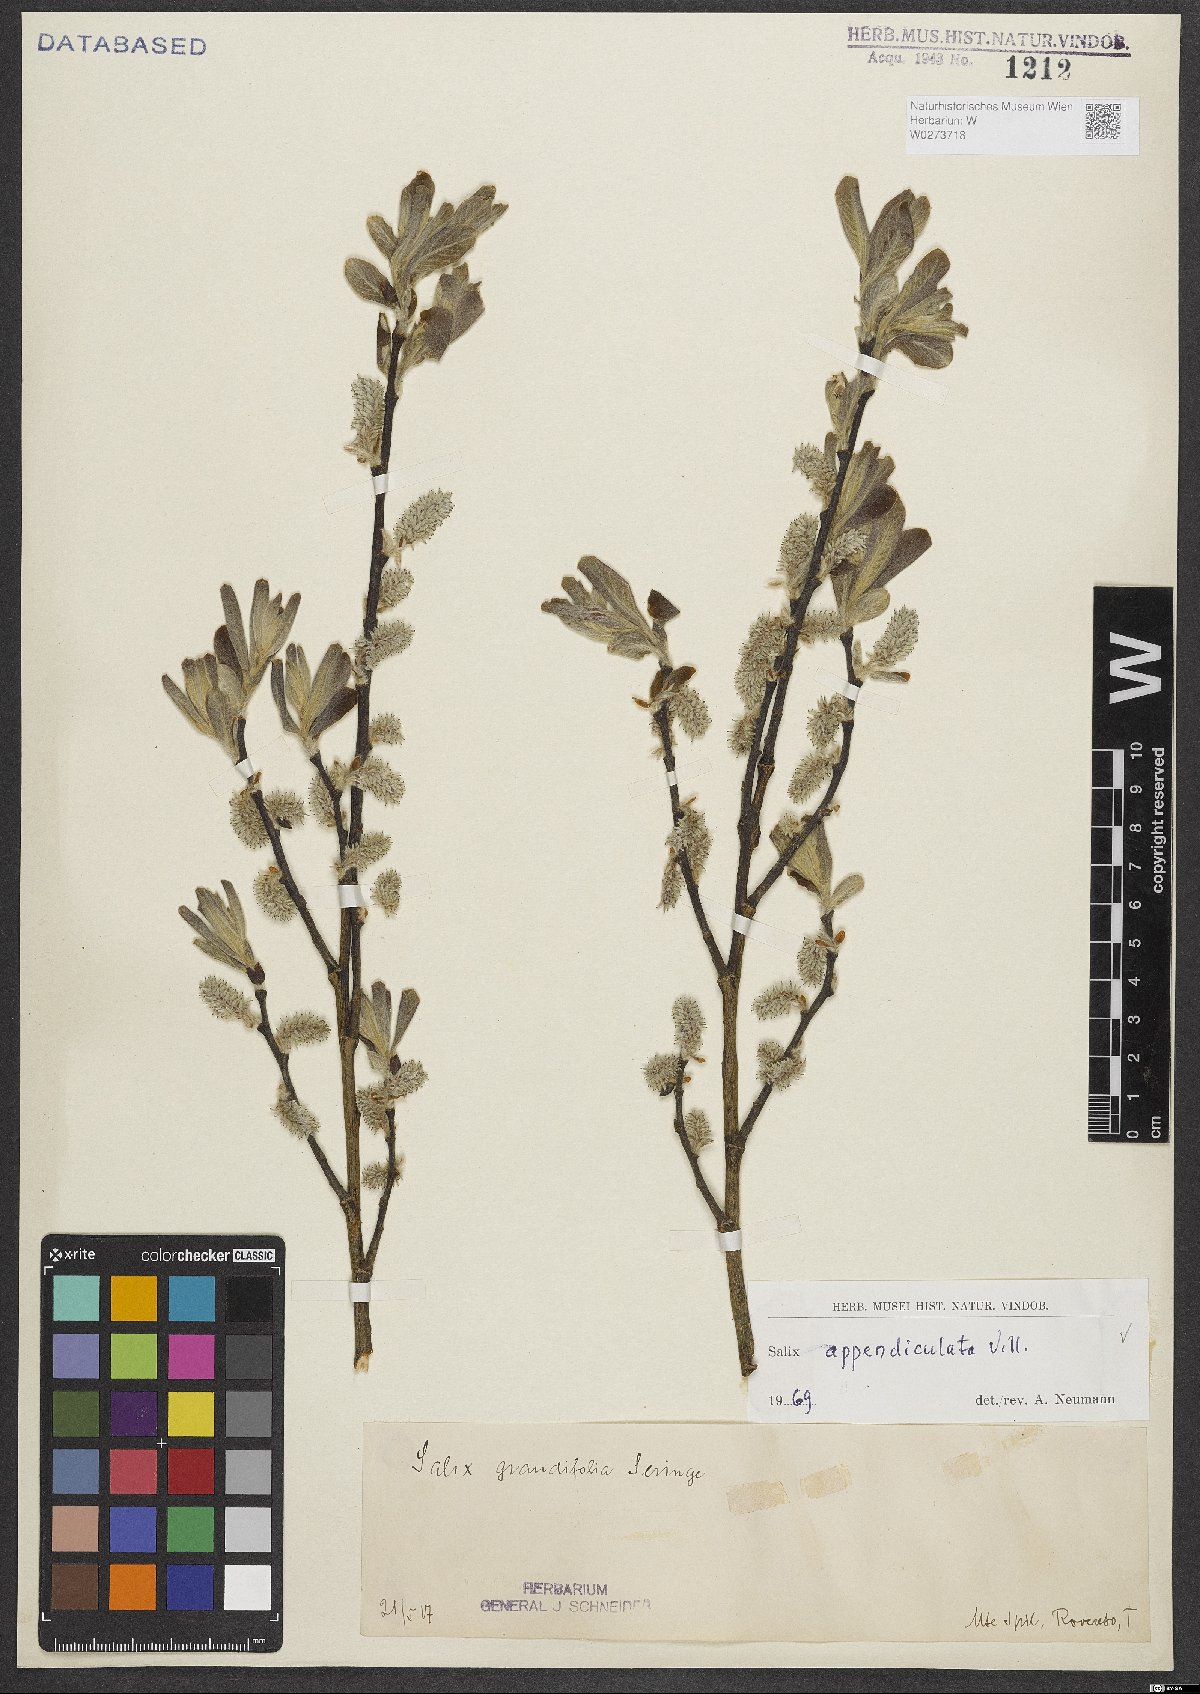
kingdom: Plantae
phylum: Tracheophyta
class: Magnoliopsida
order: Malpighiales
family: Salicaceae
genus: Salix
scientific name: Salix appendiculata
